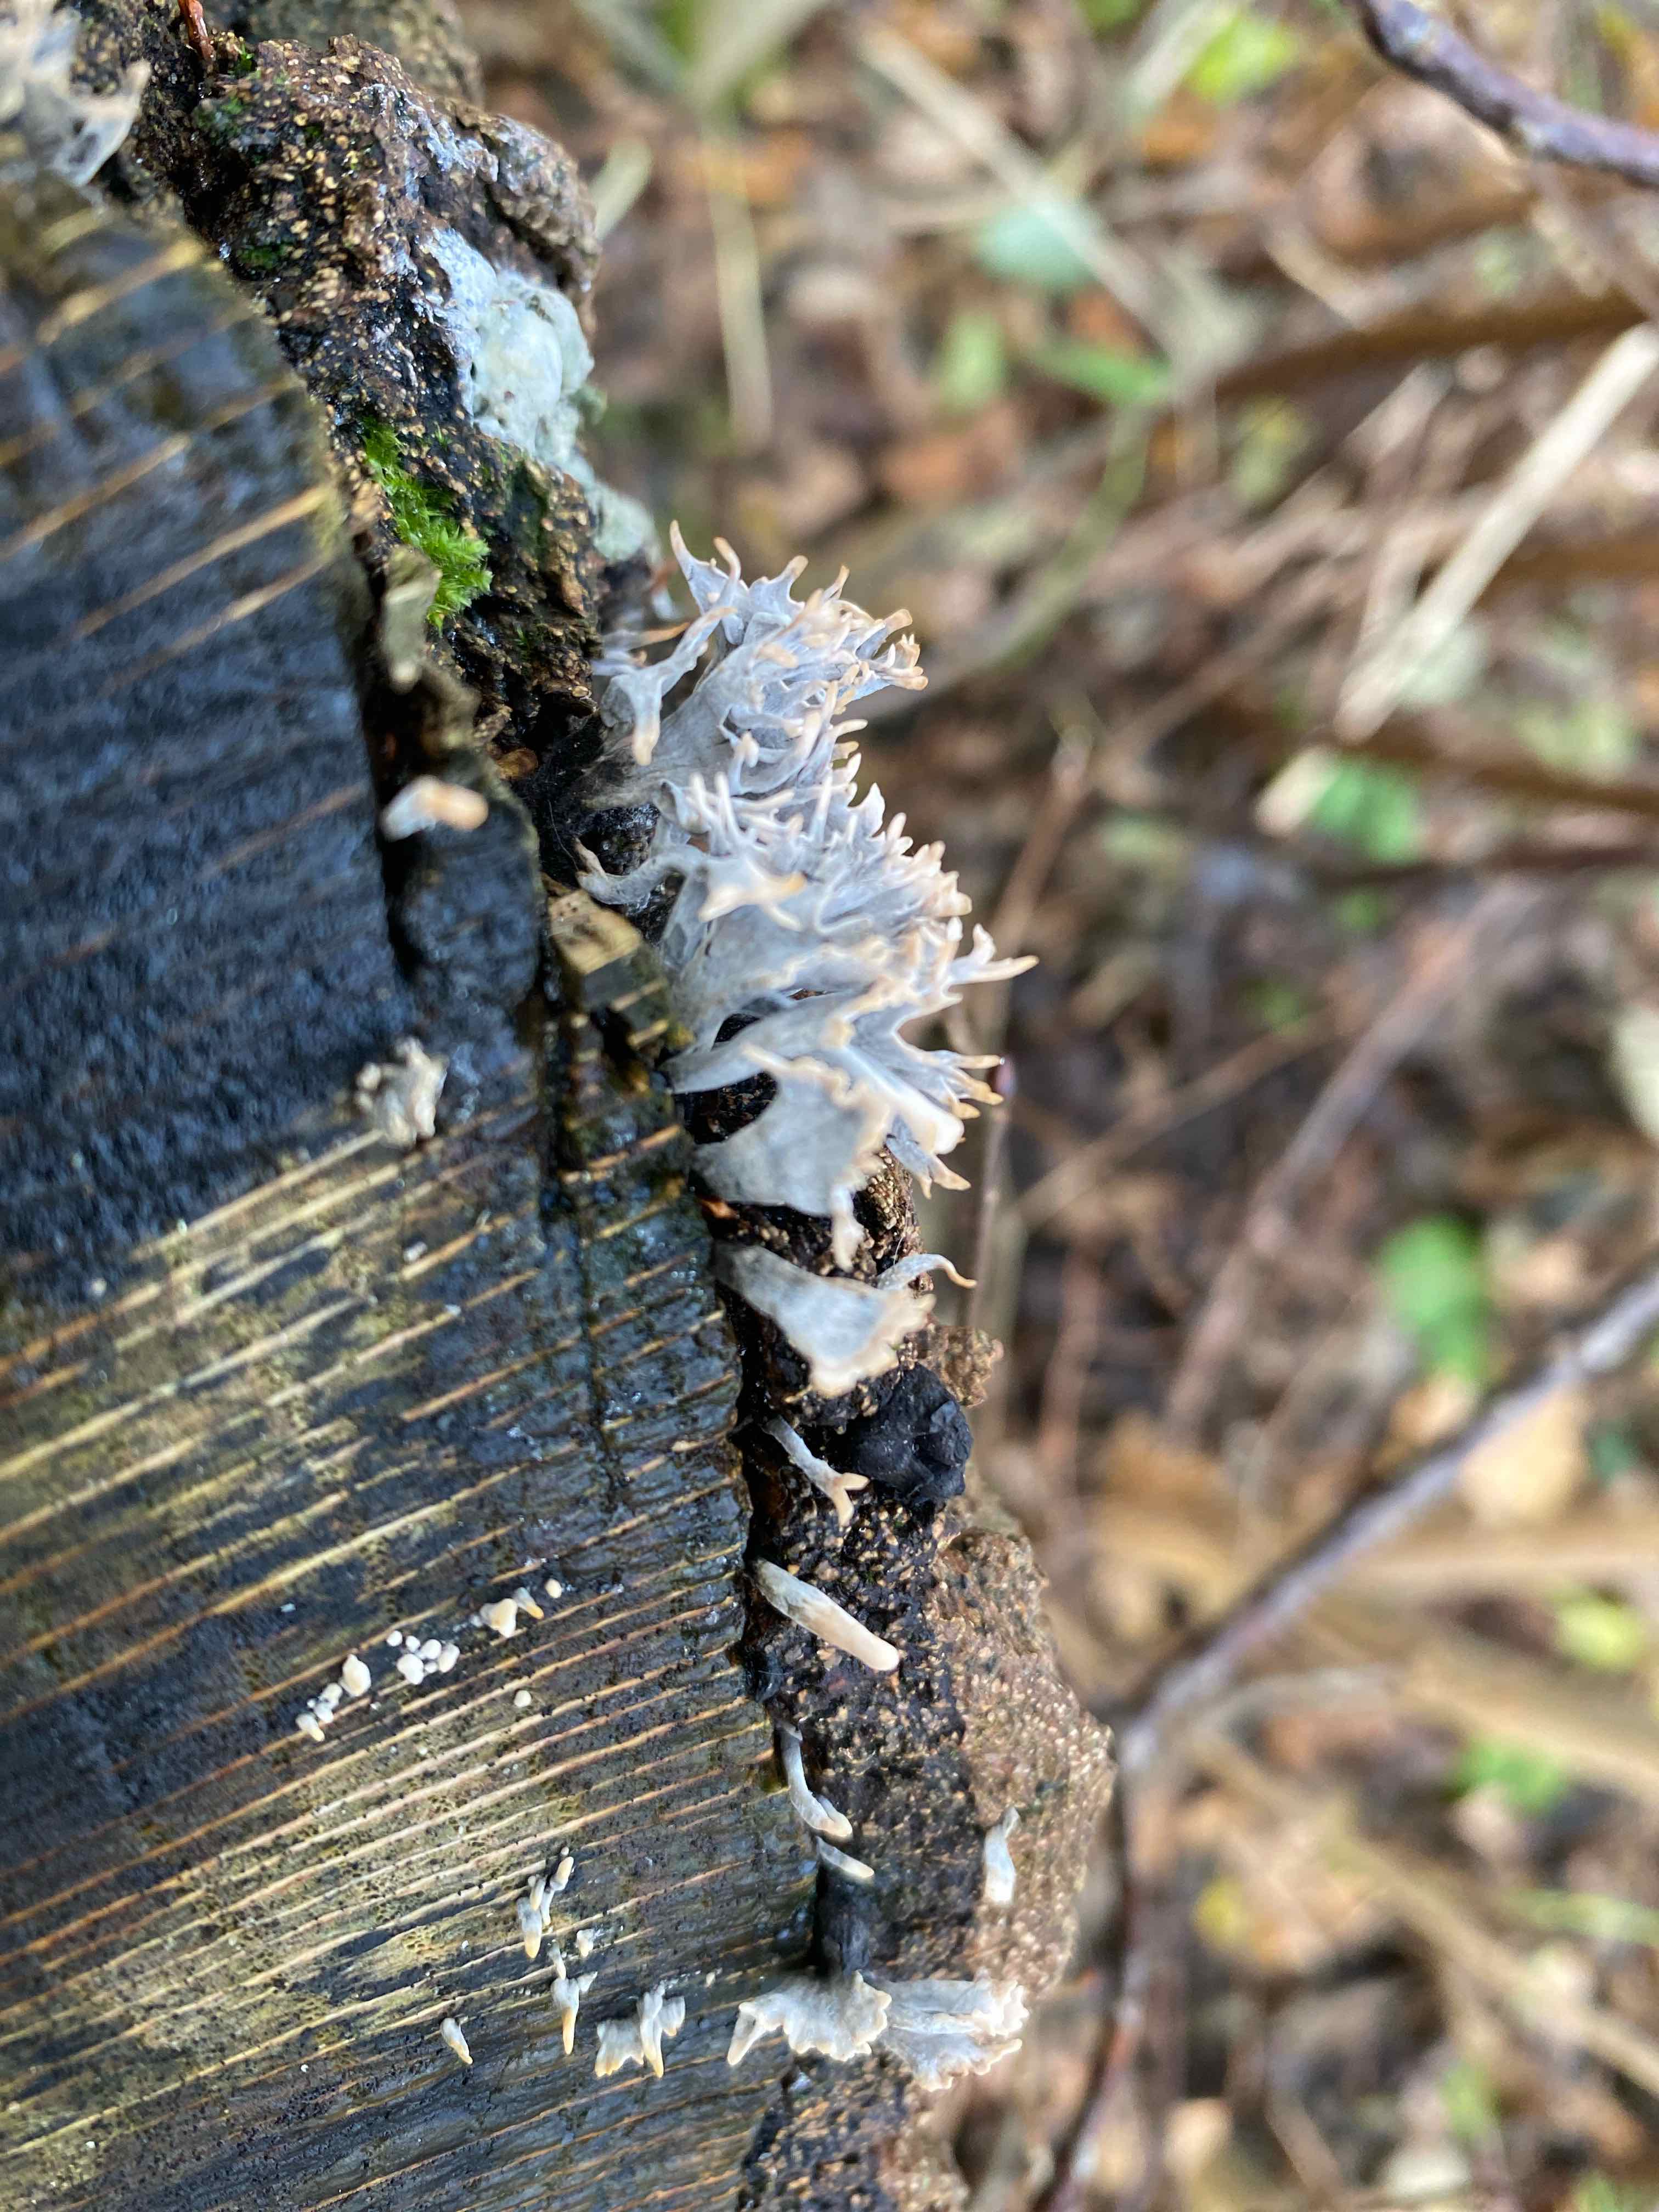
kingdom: Fungi
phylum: Ascomycota
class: Sordariomycetes
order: Xylariales
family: Xylariaceae
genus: Xylaria
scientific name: Xylaria hypoxylon
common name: grenet stødsvamp
